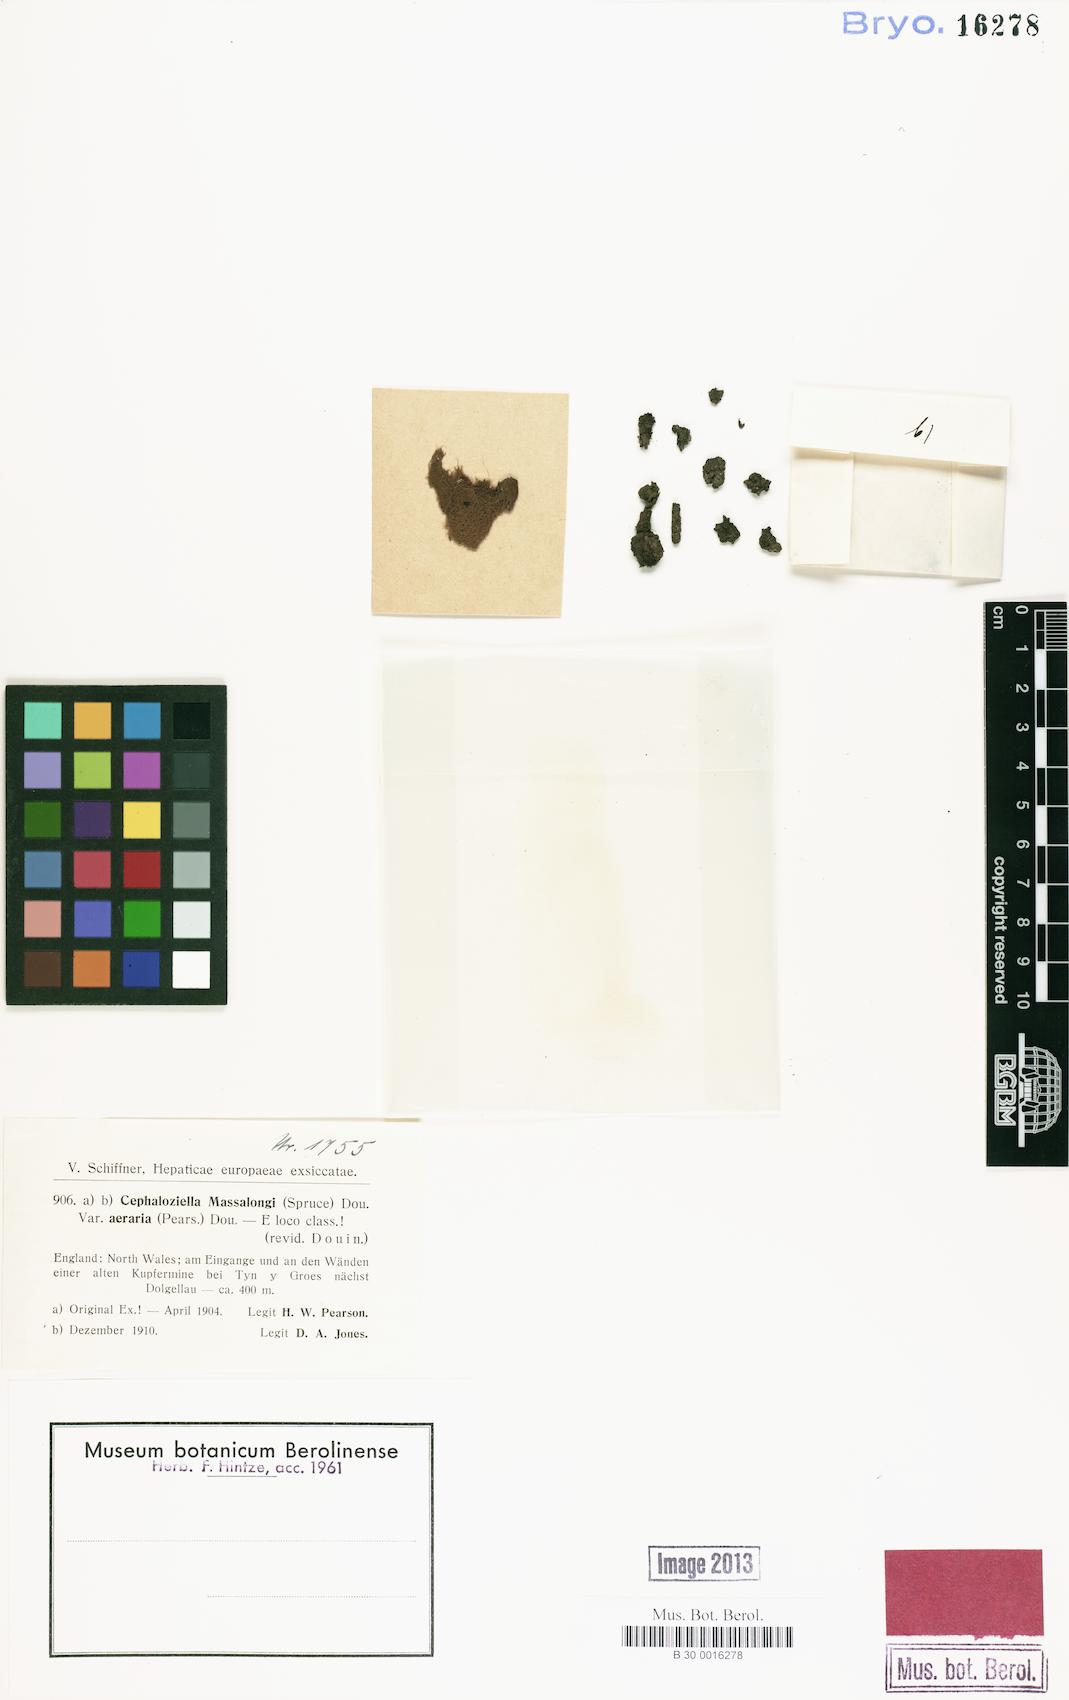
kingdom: Plantae
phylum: Marchantiophyta
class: Jungermanniopsida
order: Jungermanniales
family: Cephaloziellaceae
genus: Cephaloziella
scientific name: Cephaloziella massalongi
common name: Lesser copperwort
